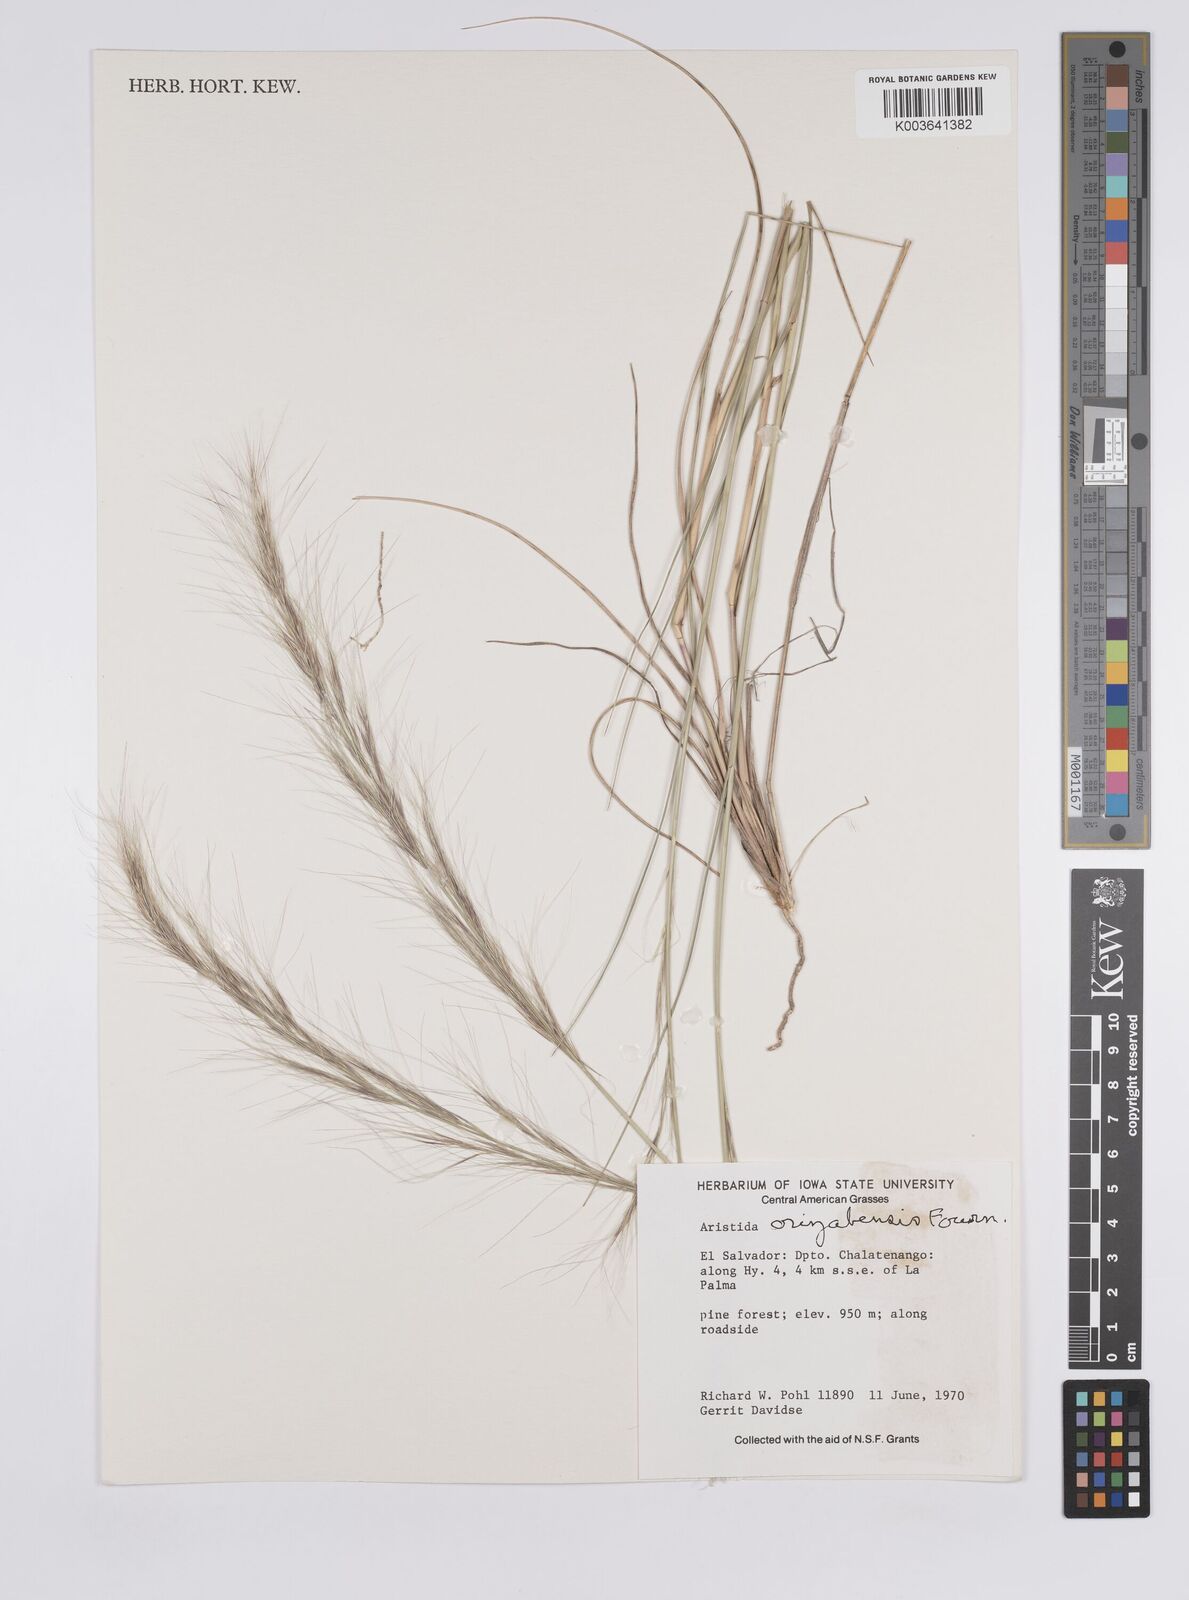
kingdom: Plantae
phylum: Tracheophyta
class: Liliopsida
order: Poales
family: Poaceae
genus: Aristida
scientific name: Aristida gibbosa
